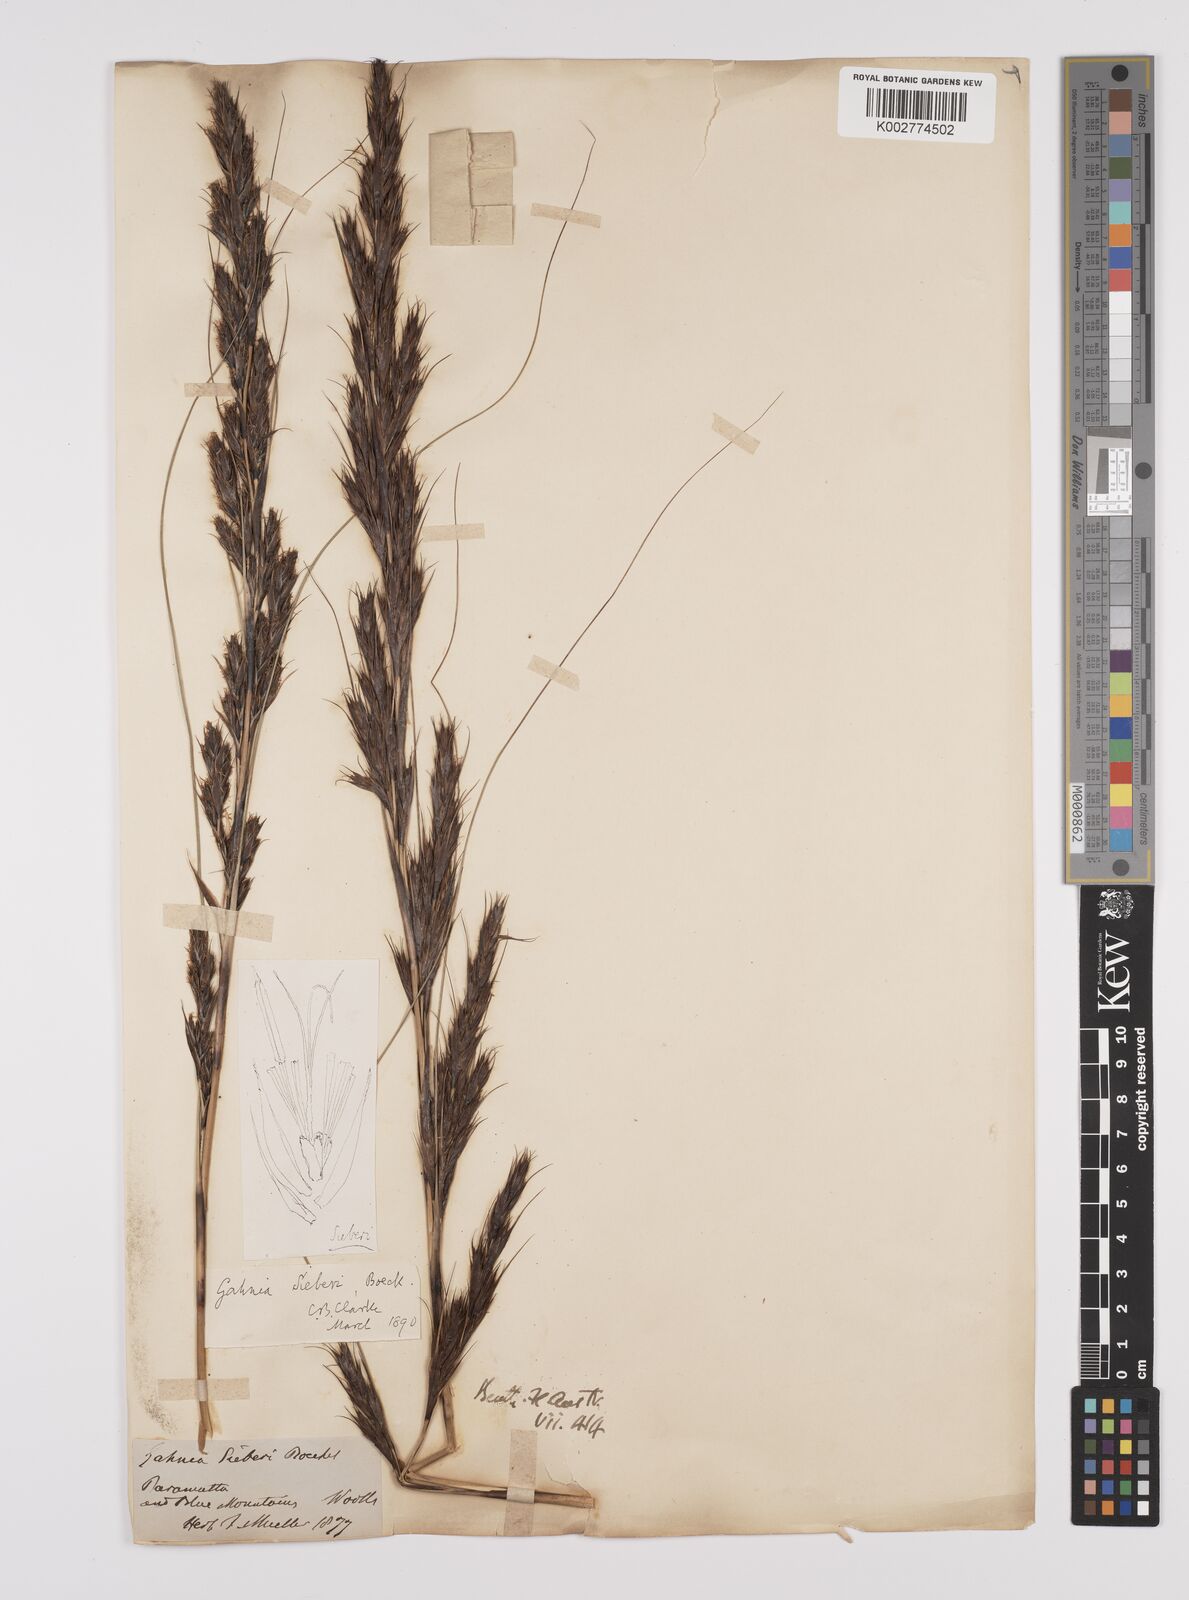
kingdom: Plantae
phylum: Tracheophyta
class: Liliopsida
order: Poales
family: Cyperaceae
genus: Gahnia
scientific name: Gahnia filifolia
